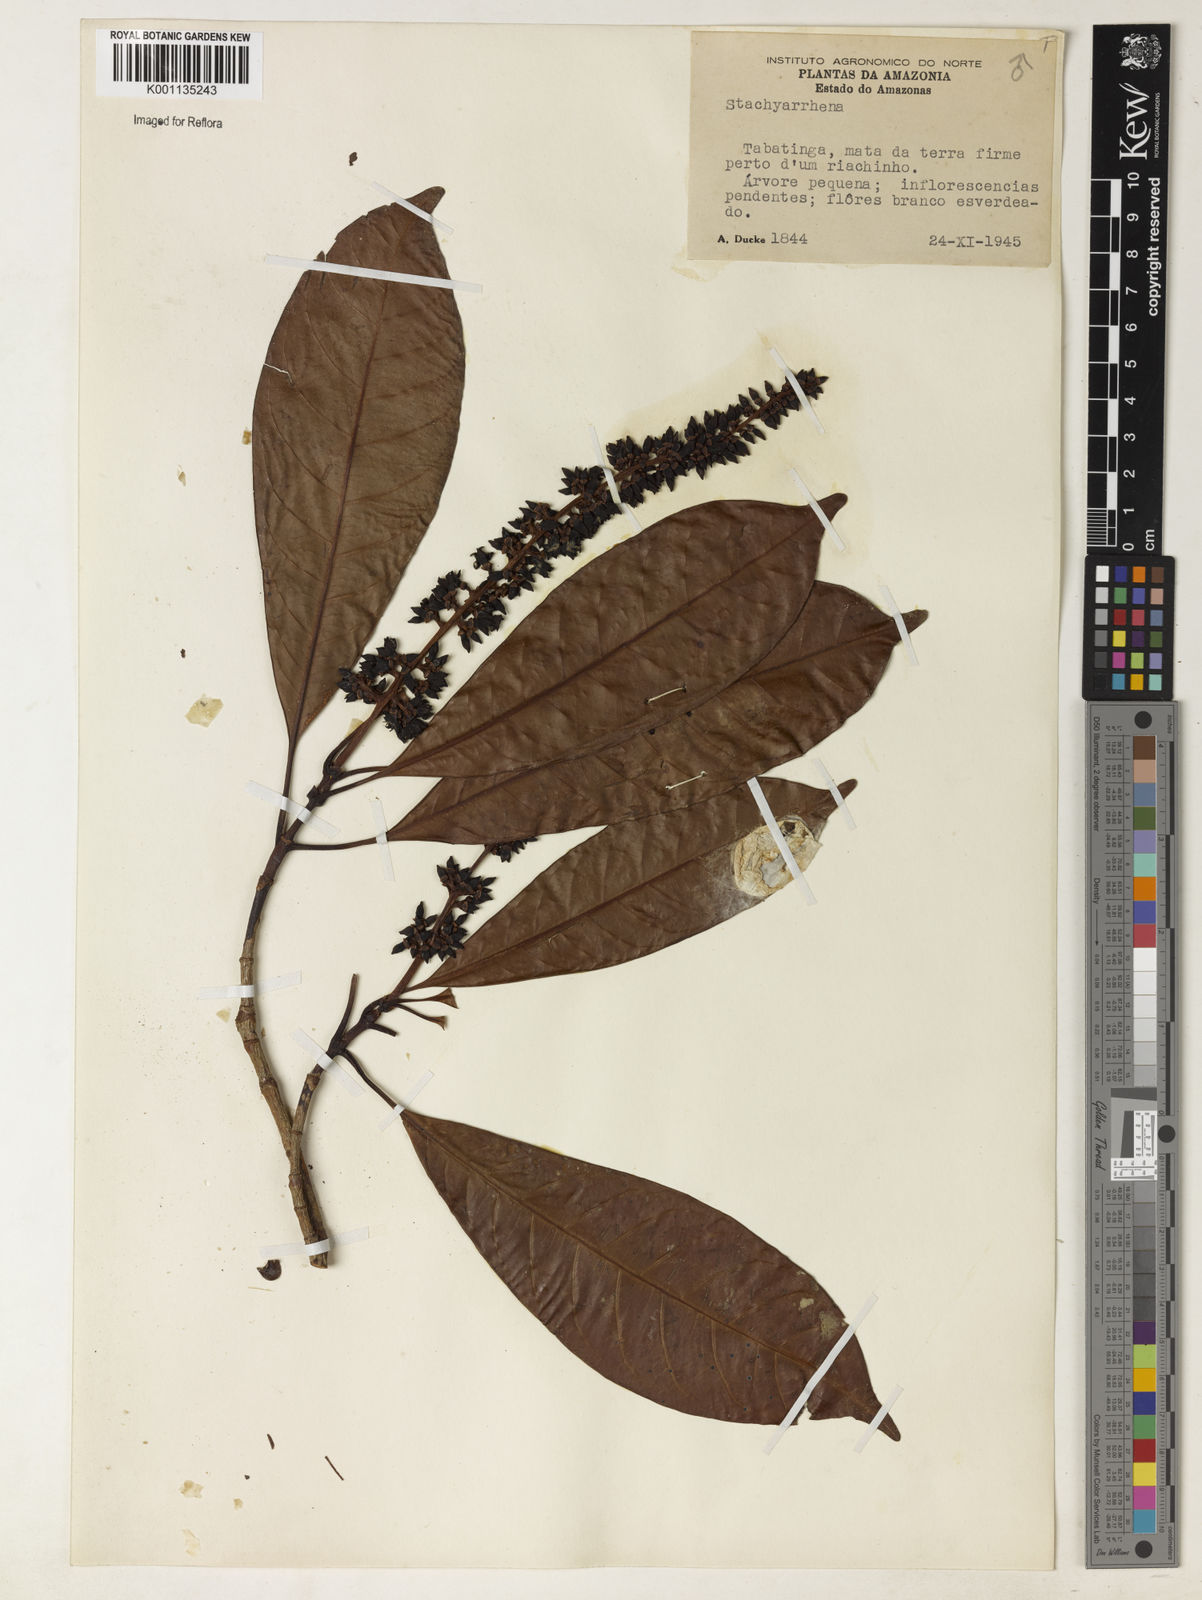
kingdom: Plantae
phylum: Tracheophyta
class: Magnoliopsida
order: Gentianales
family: Rubiaceae
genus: Stachyarrhena
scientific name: Stachyarrhena
